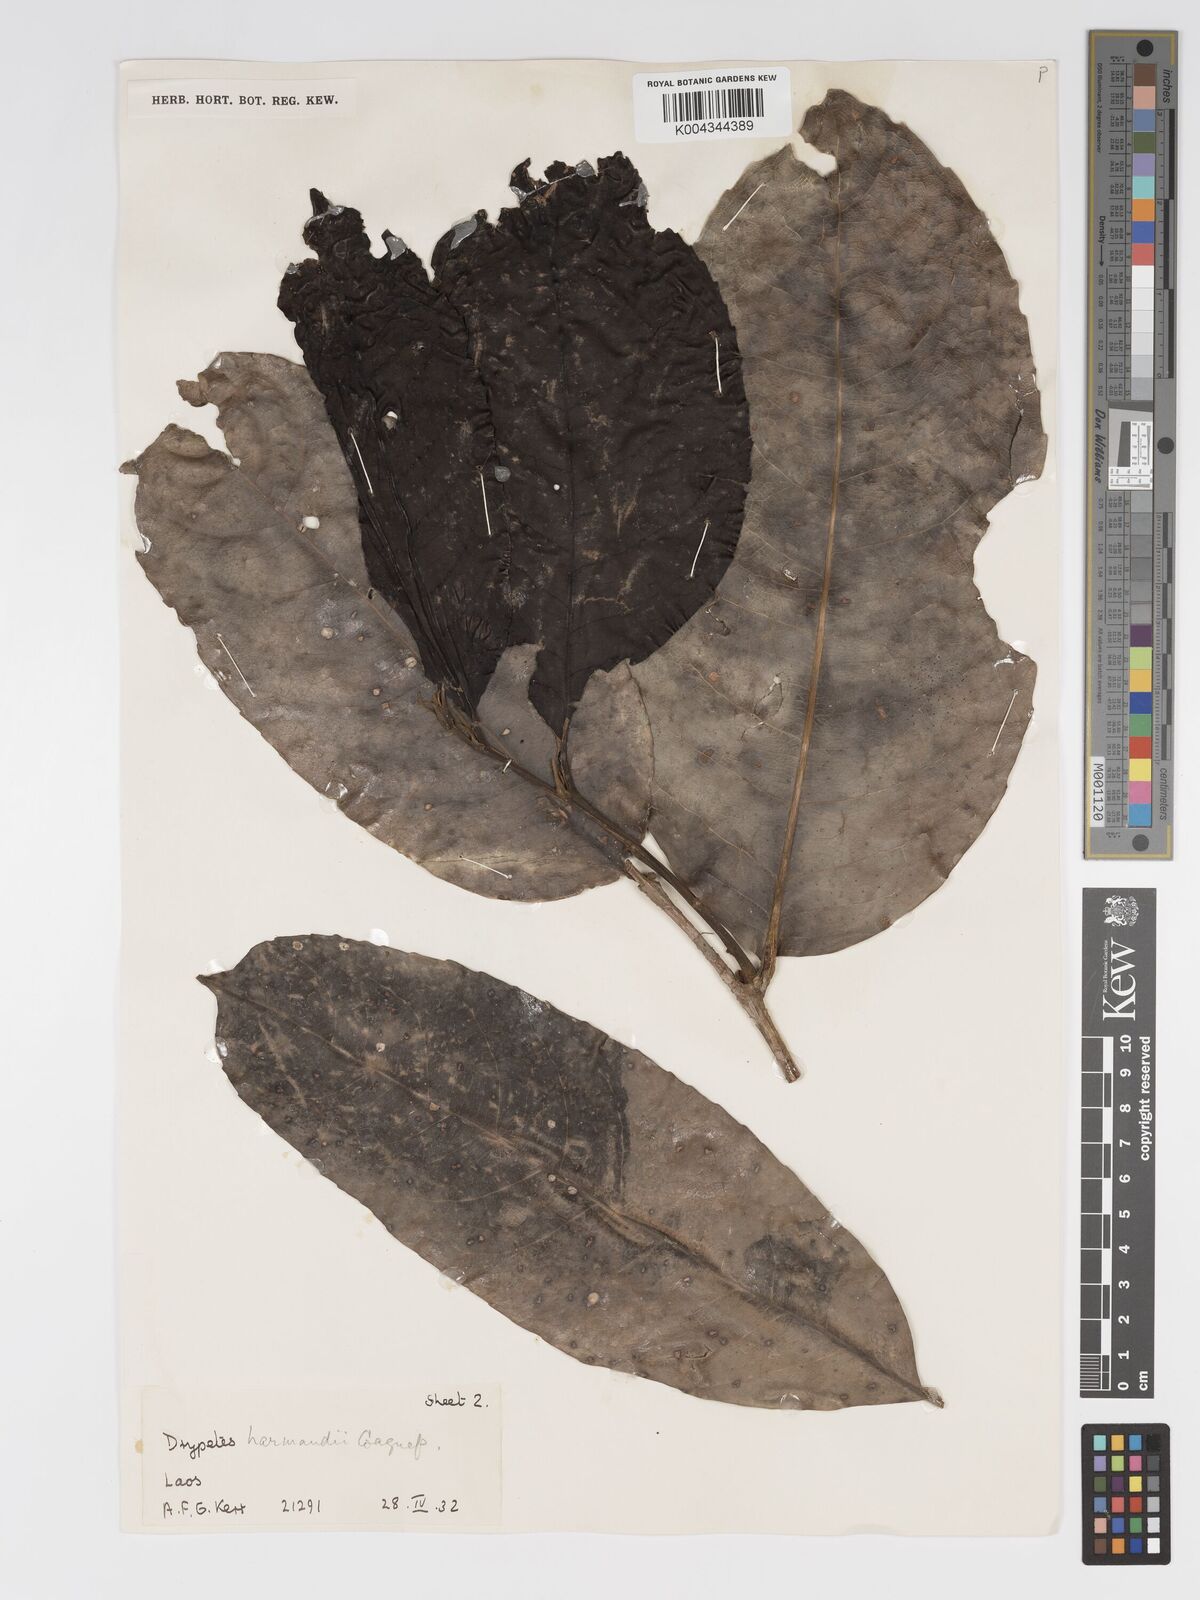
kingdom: Plantae
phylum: Tracheophyta
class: Magnoliopsida
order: Malpighiales
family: Putranjivaceae
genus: Drypetes
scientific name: Drypetes harmandii
